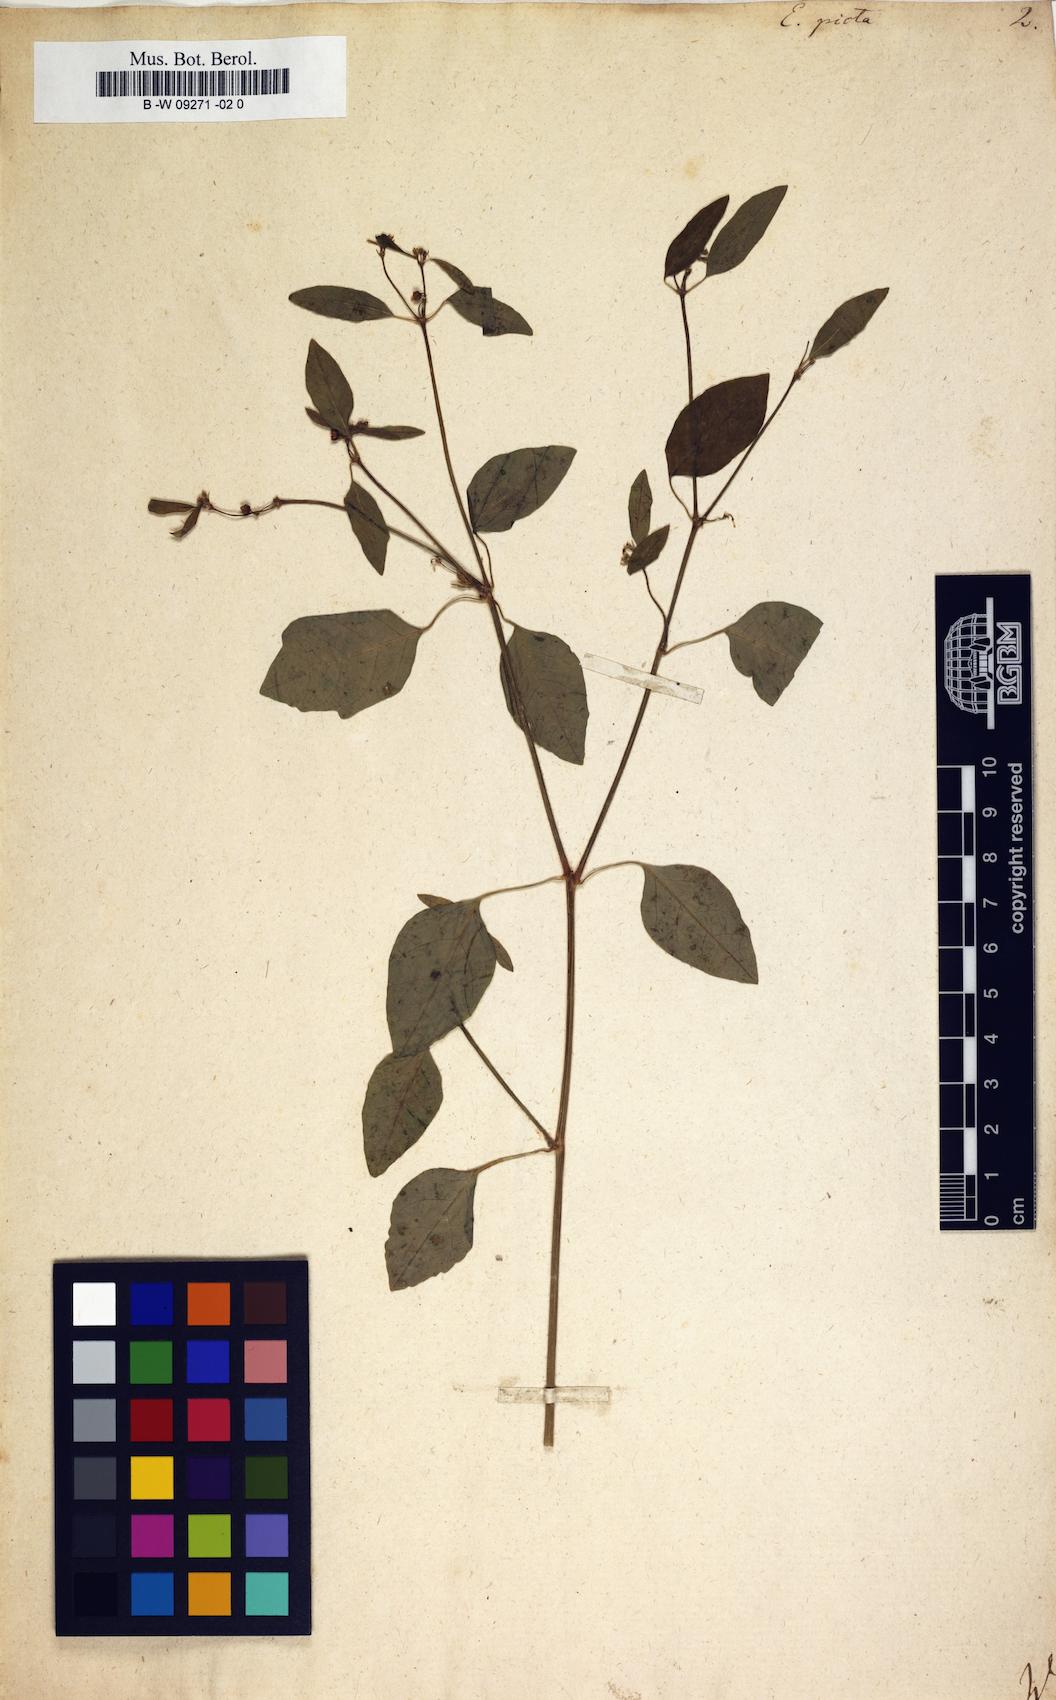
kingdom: Plantae
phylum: Tracheophyta
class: Magnoliopsida
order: Malpighiales
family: Euphorbiaceae
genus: Euphorbia
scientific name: Euphorbia graminea
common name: Grassleaf spurge
